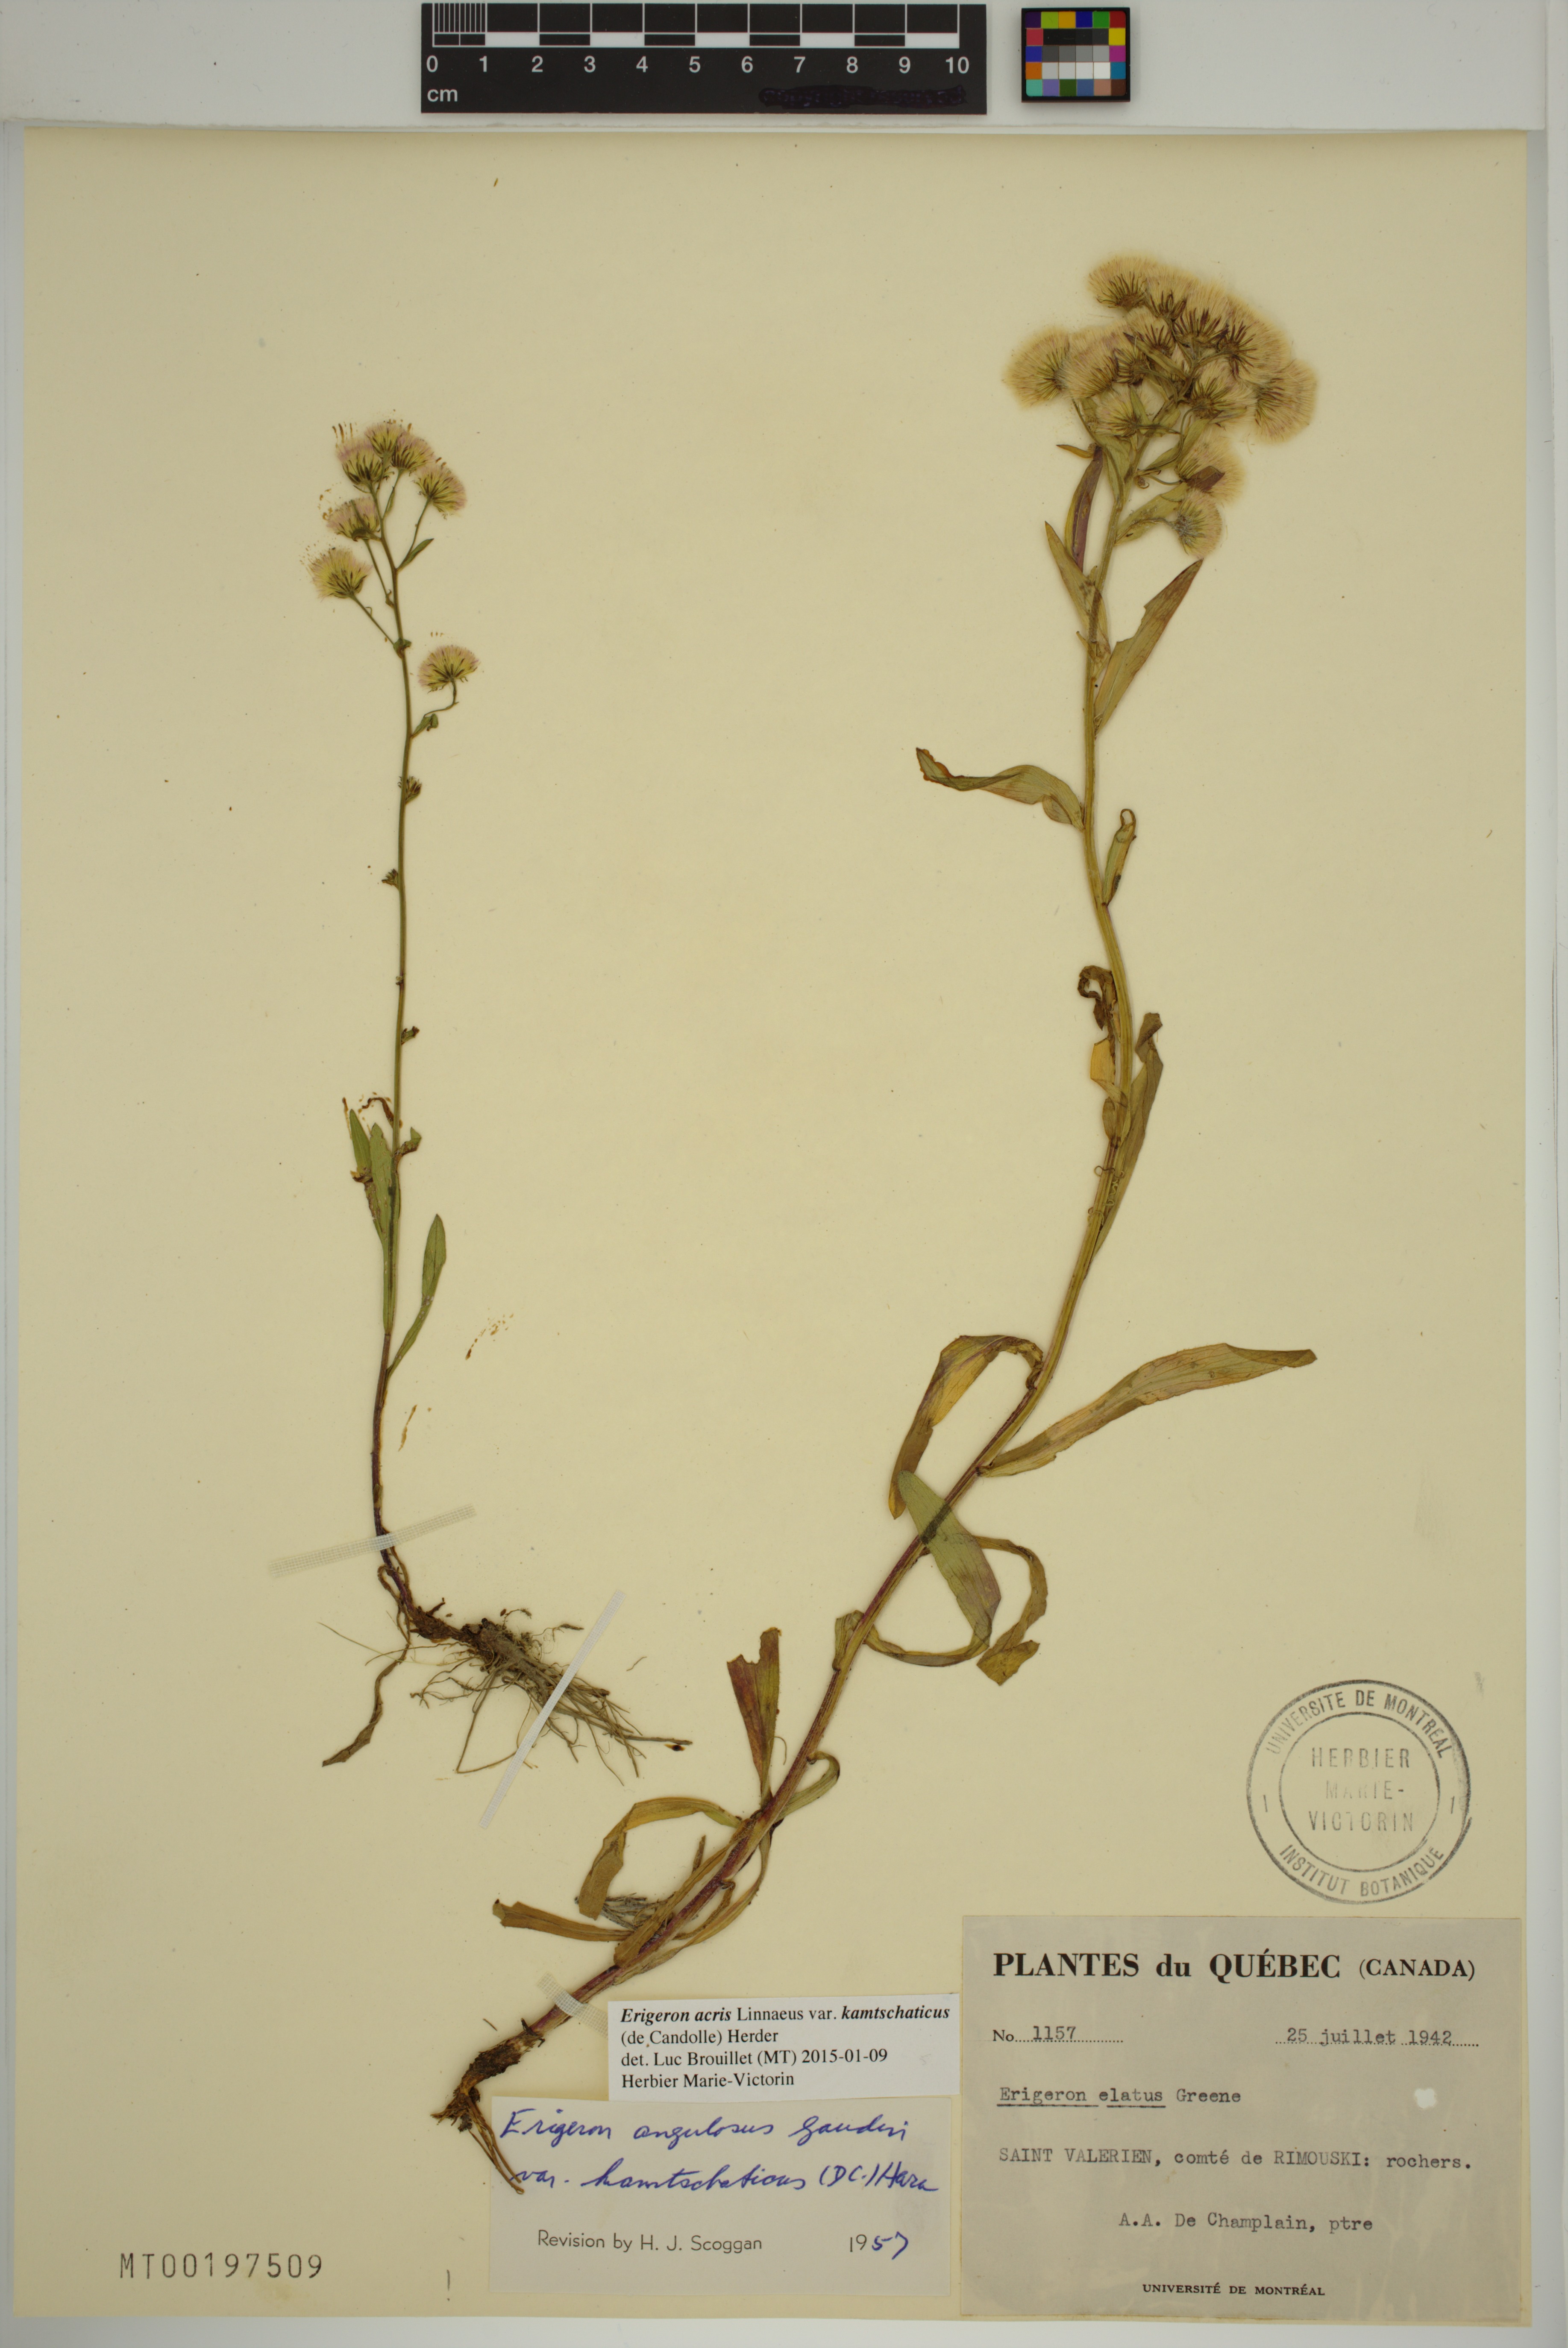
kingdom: Plantae
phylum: Tracheophyta
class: Magnoliopsida
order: Asterales
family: Asteraceae
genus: Erigeron
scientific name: Erigeron kamtschaticus
